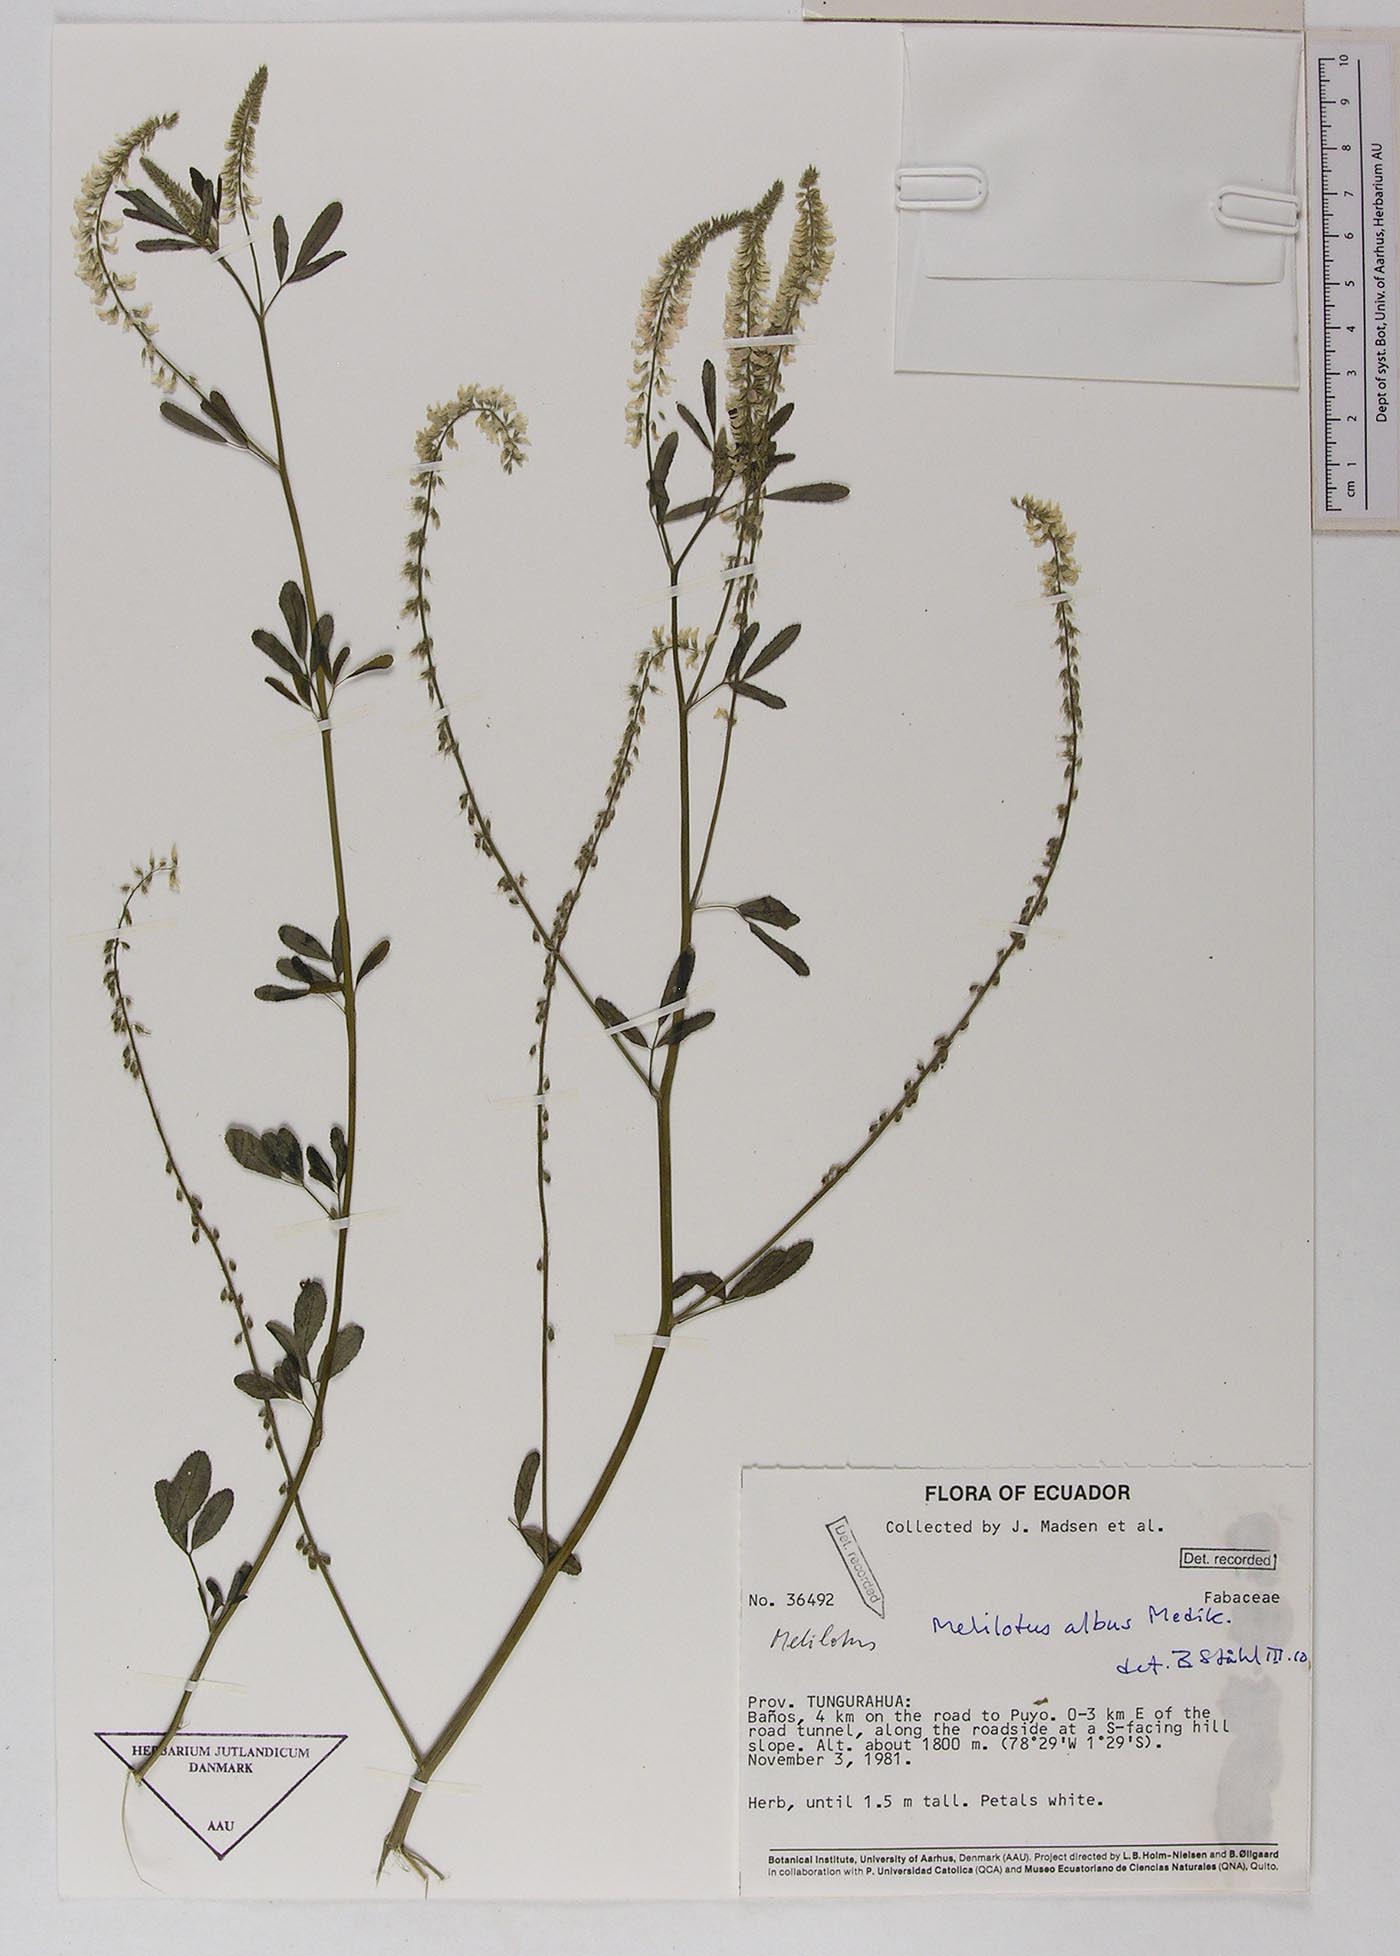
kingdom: Plantae
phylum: Tracheophyta
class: Magnoliopsida
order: Fabales
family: Fabaceae
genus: Melilotus
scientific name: Melilotus albus
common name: White melilot
